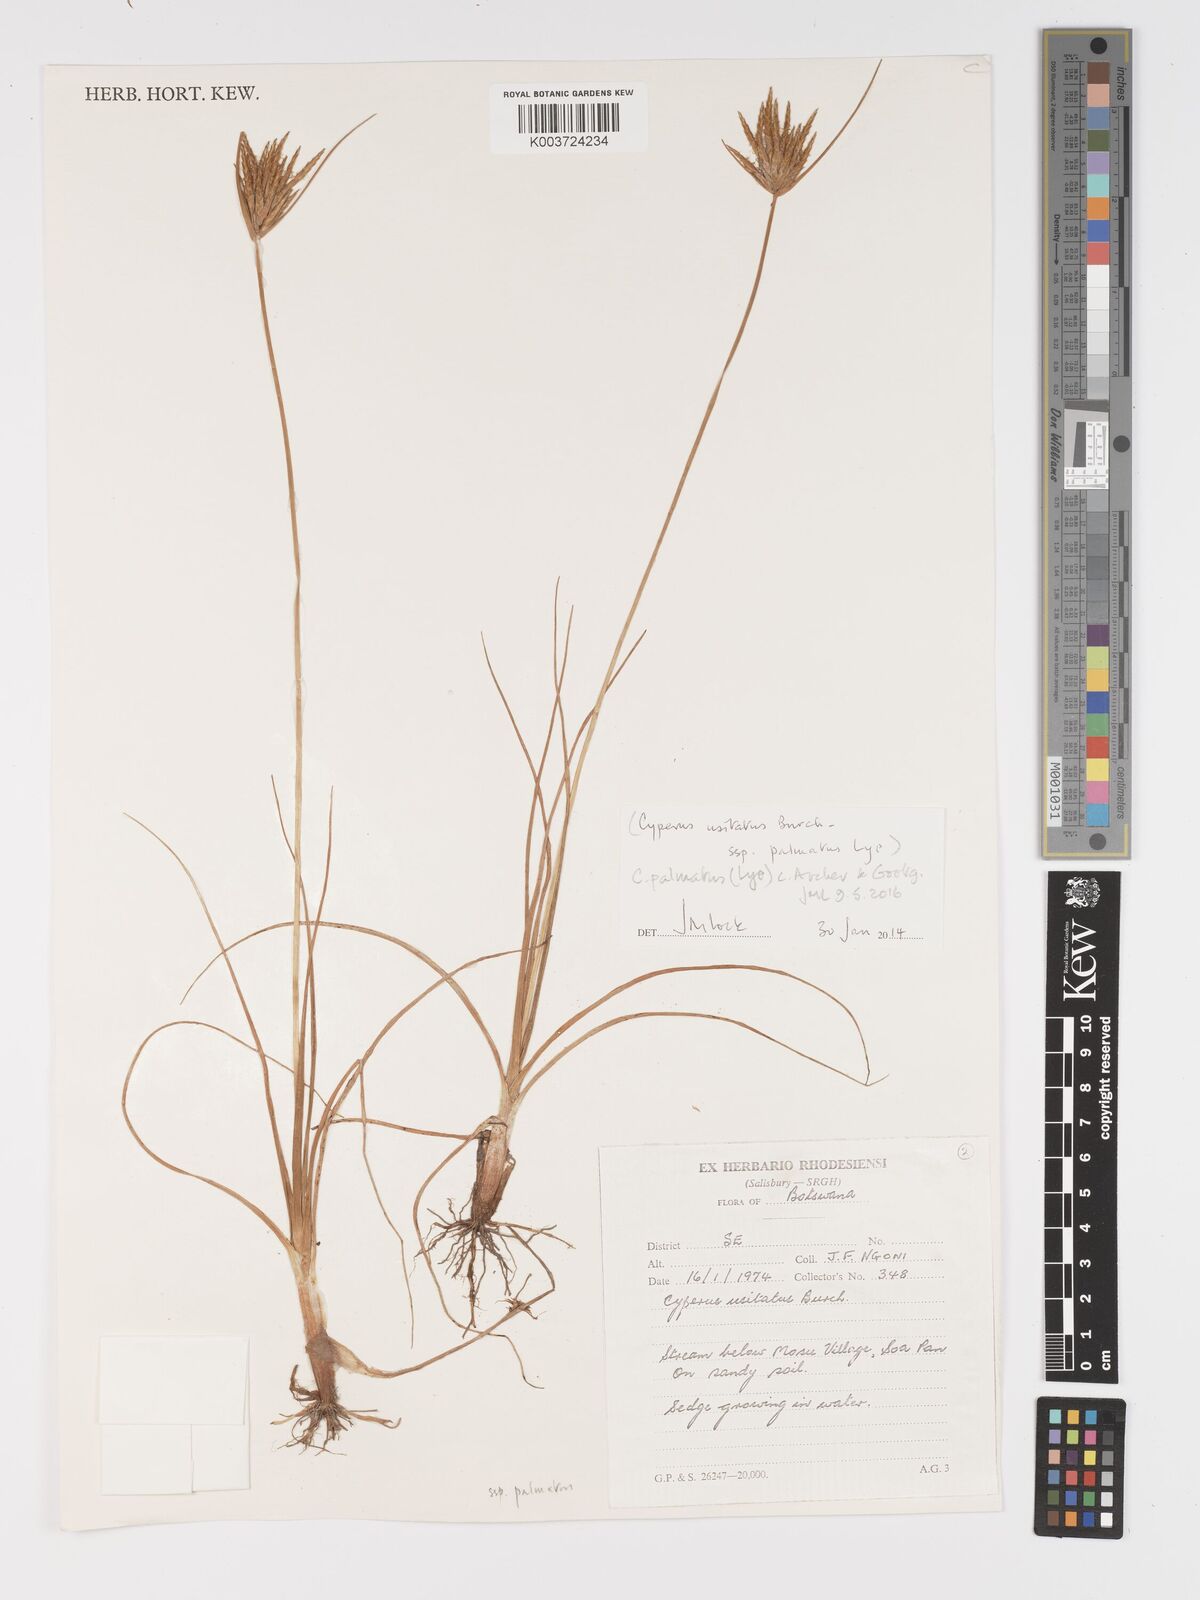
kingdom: Plantae
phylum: Tracheophyta
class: Liliopsida
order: Poales
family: Cyperaceae
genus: Cyperus
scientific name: Cyperus palmatus
